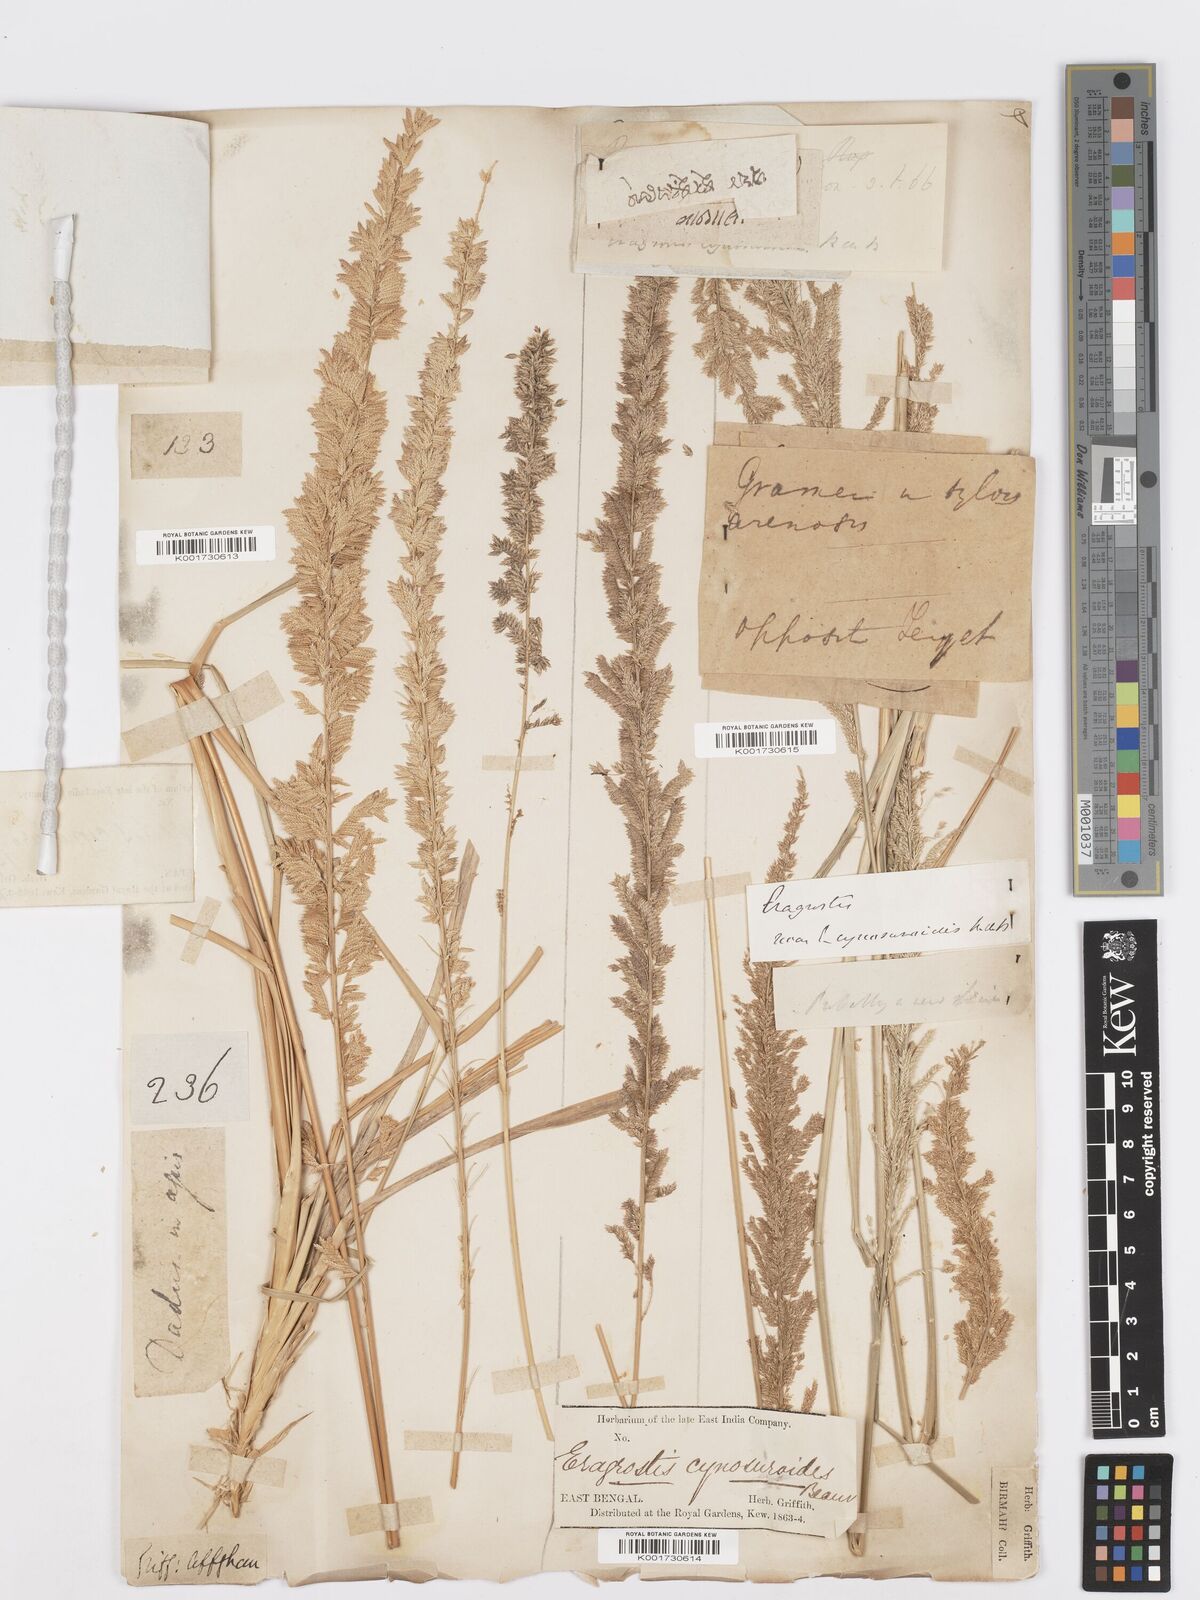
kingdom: Plantae
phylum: Tracheophyta
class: Liliopsida
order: Poales
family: Poaceae
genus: Desmostachya
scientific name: Desmostachya bipinnata
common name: Crowfoot grass
